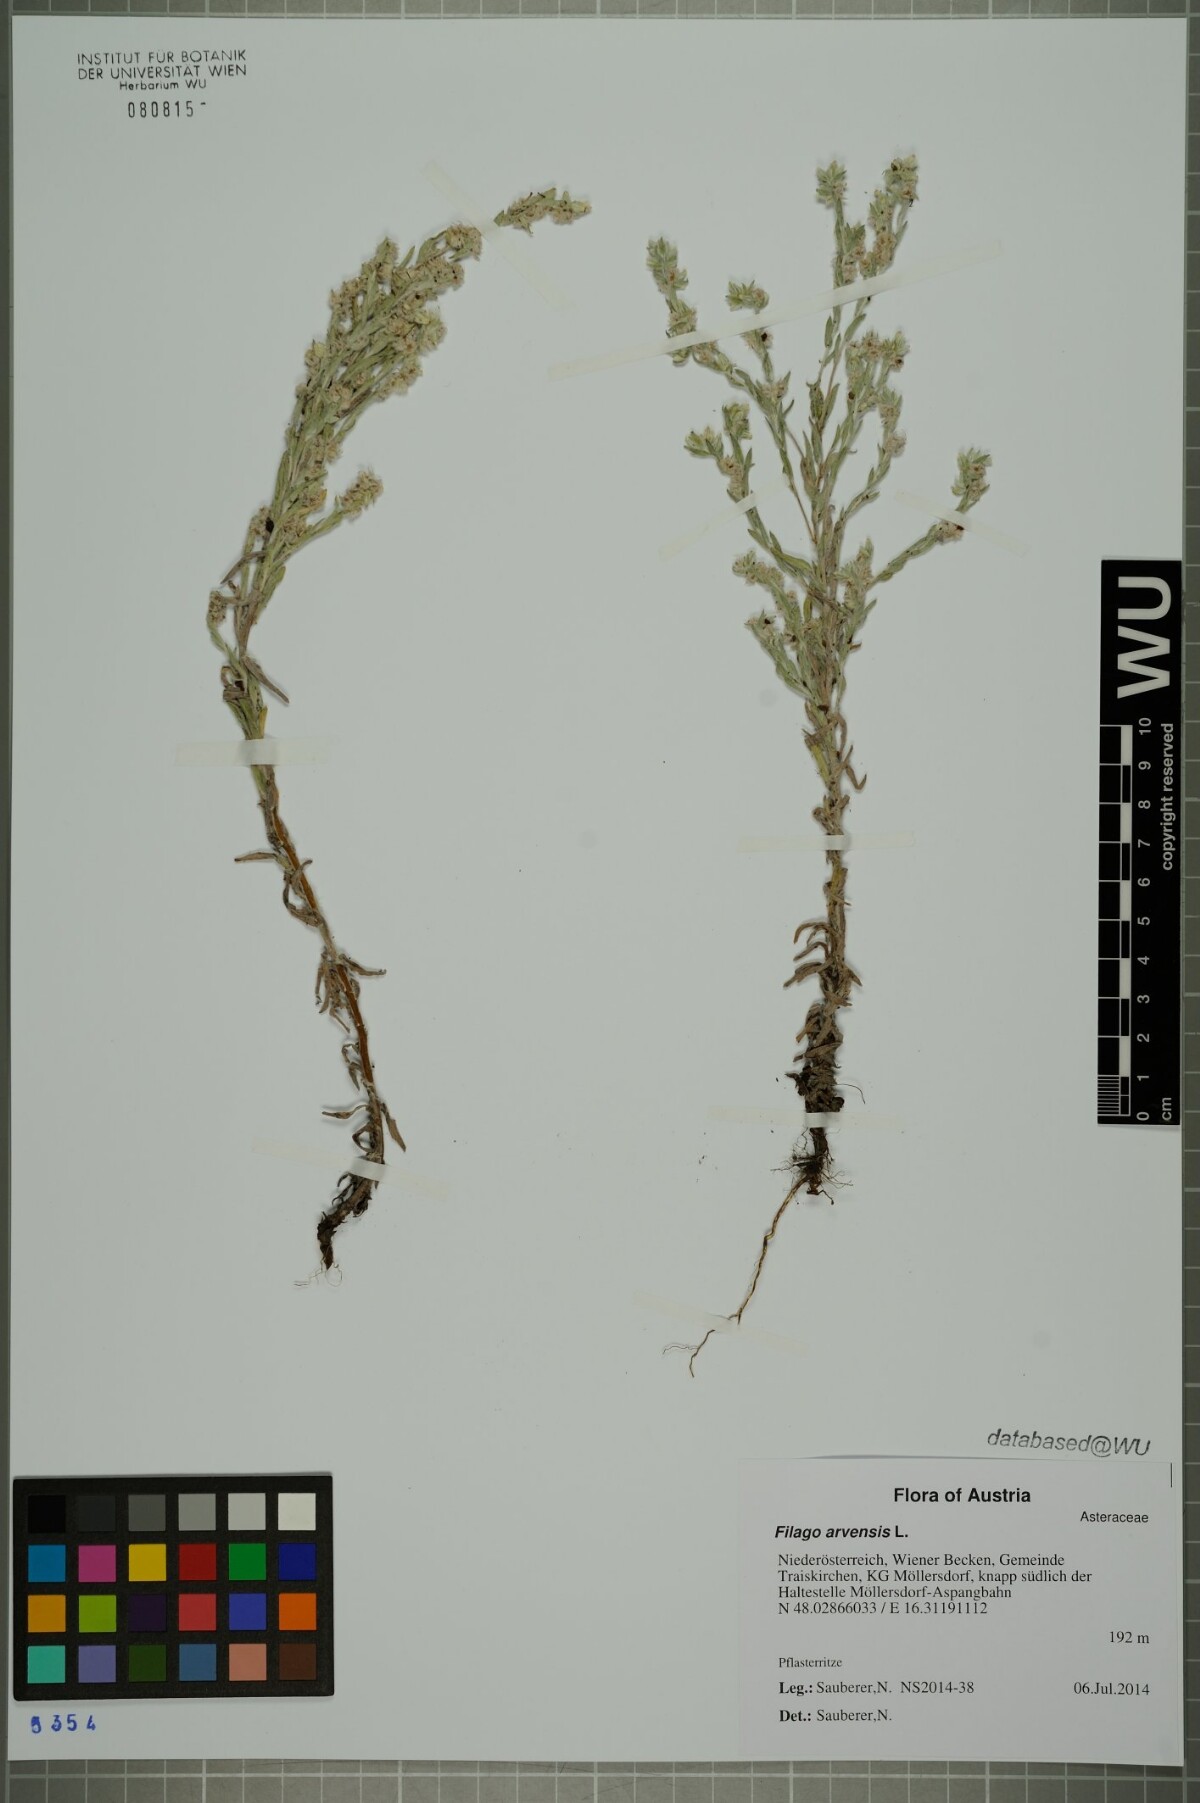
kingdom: Plantae
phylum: Tracheophyta
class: Magnoliopsida
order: Asterales
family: Asteraceae
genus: Filago
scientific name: Filago arvensis
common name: Field cudweed
